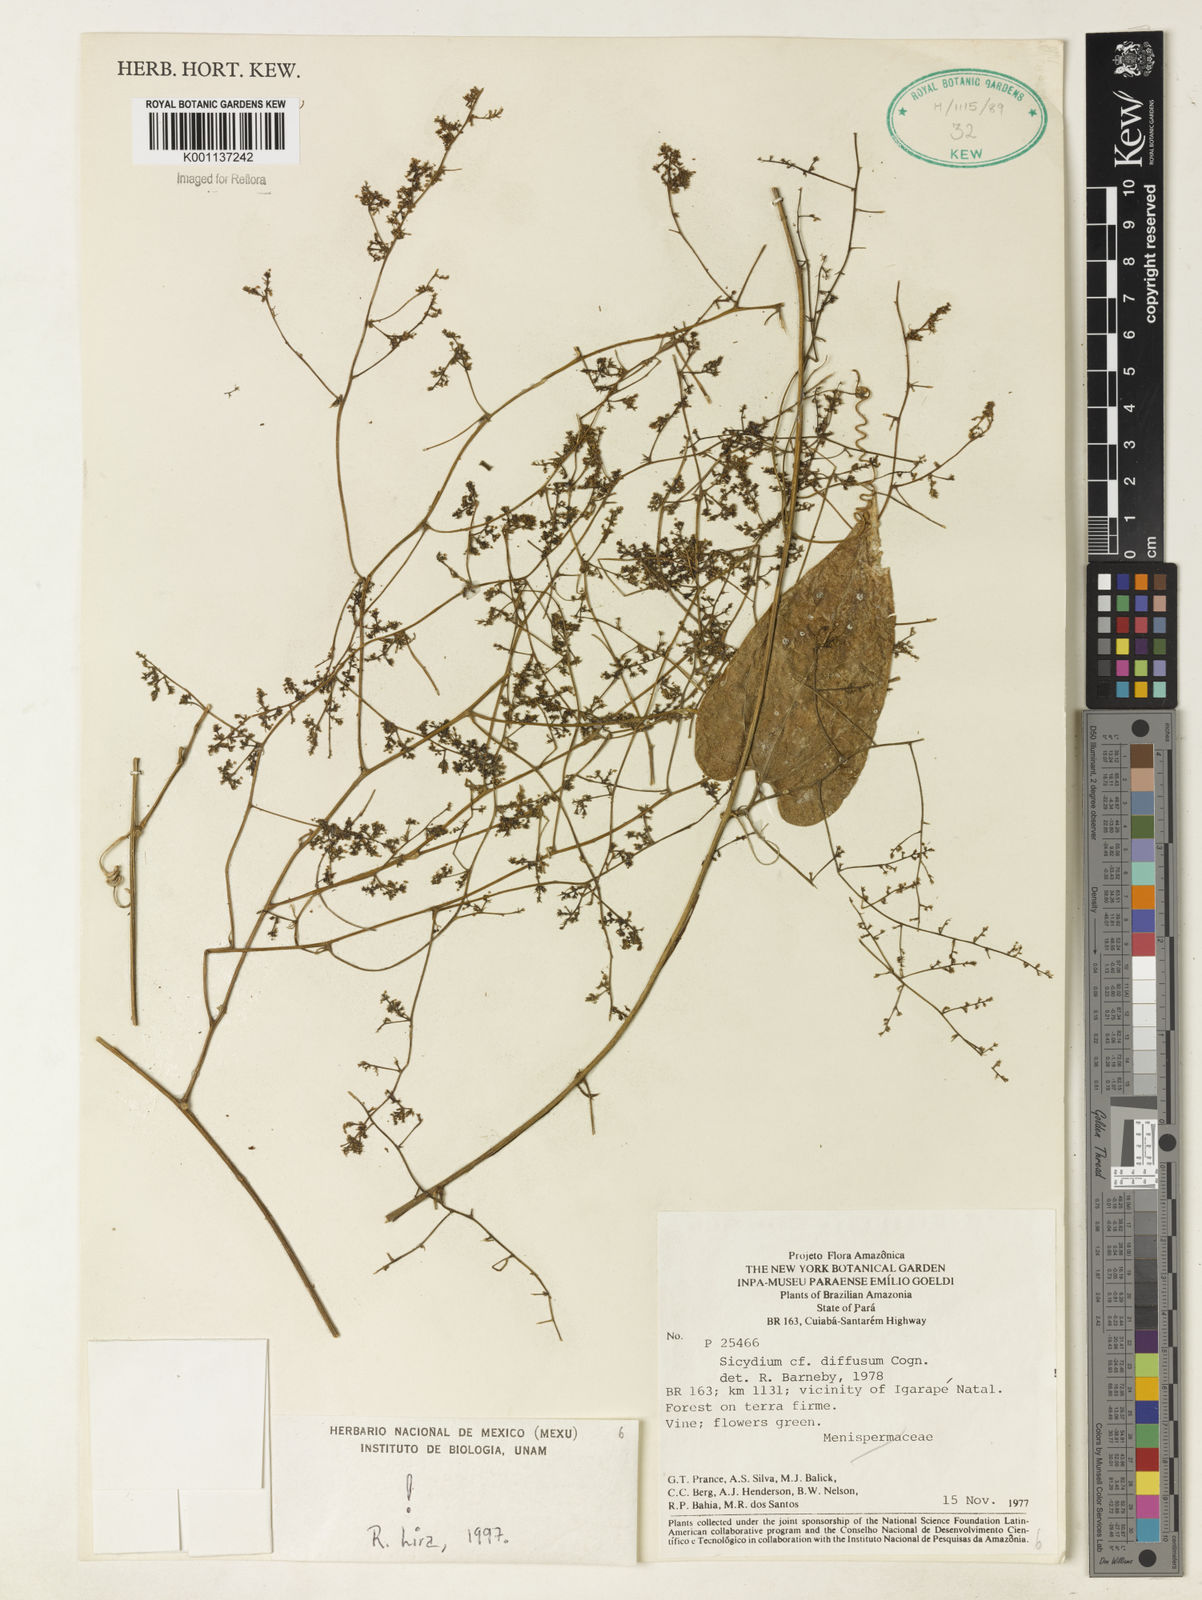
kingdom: Plantae
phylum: Tracheophyta
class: Magnoliopsida
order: Cucurbitales
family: Cucurbitaceae
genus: Sicydium
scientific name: Sicydium diffusum
